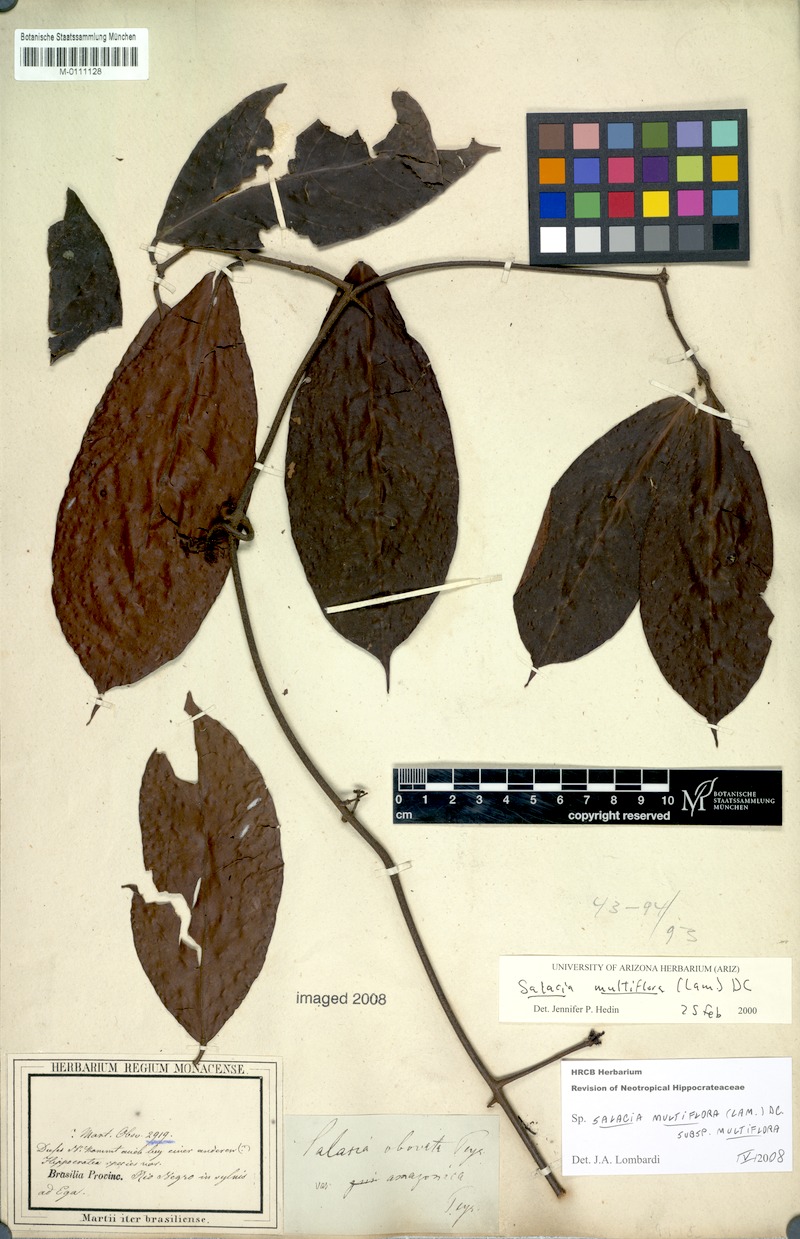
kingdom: Plantae
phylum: Tracheophyta
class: Magnoliopsida
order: Celastrales
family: Celastraceae
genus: Salacia
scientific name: Salacia multiflora
